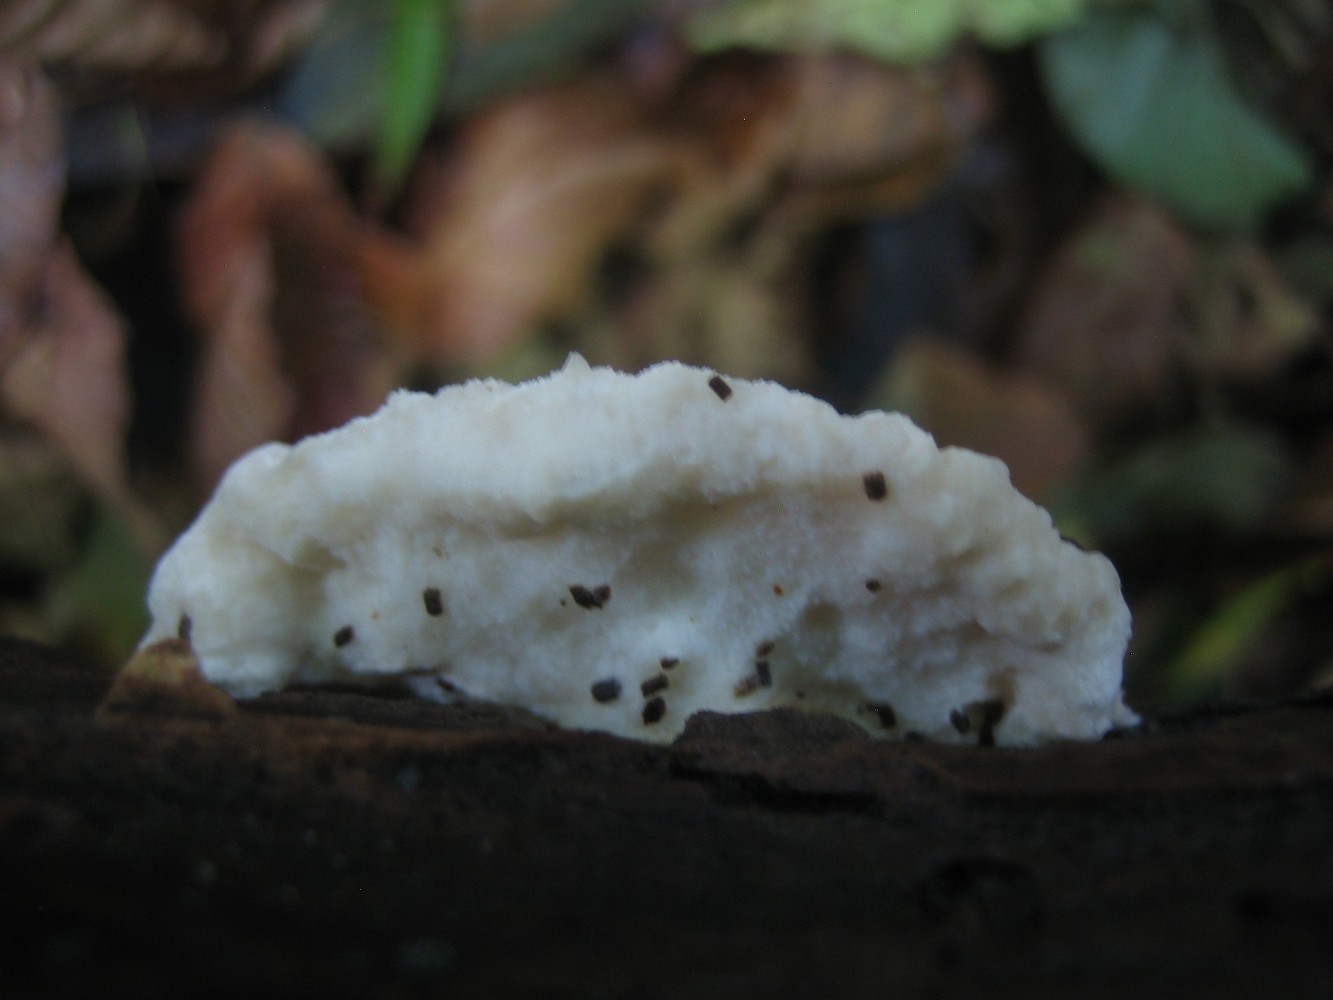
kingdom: Fungi
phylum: Basidiomycota
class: Agaricomycetes
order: Polyporales
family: Incrustoporiaceae
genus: Tyromyces
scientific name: Tyromyces lacteus
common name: mælkehvid kødporesvamp
